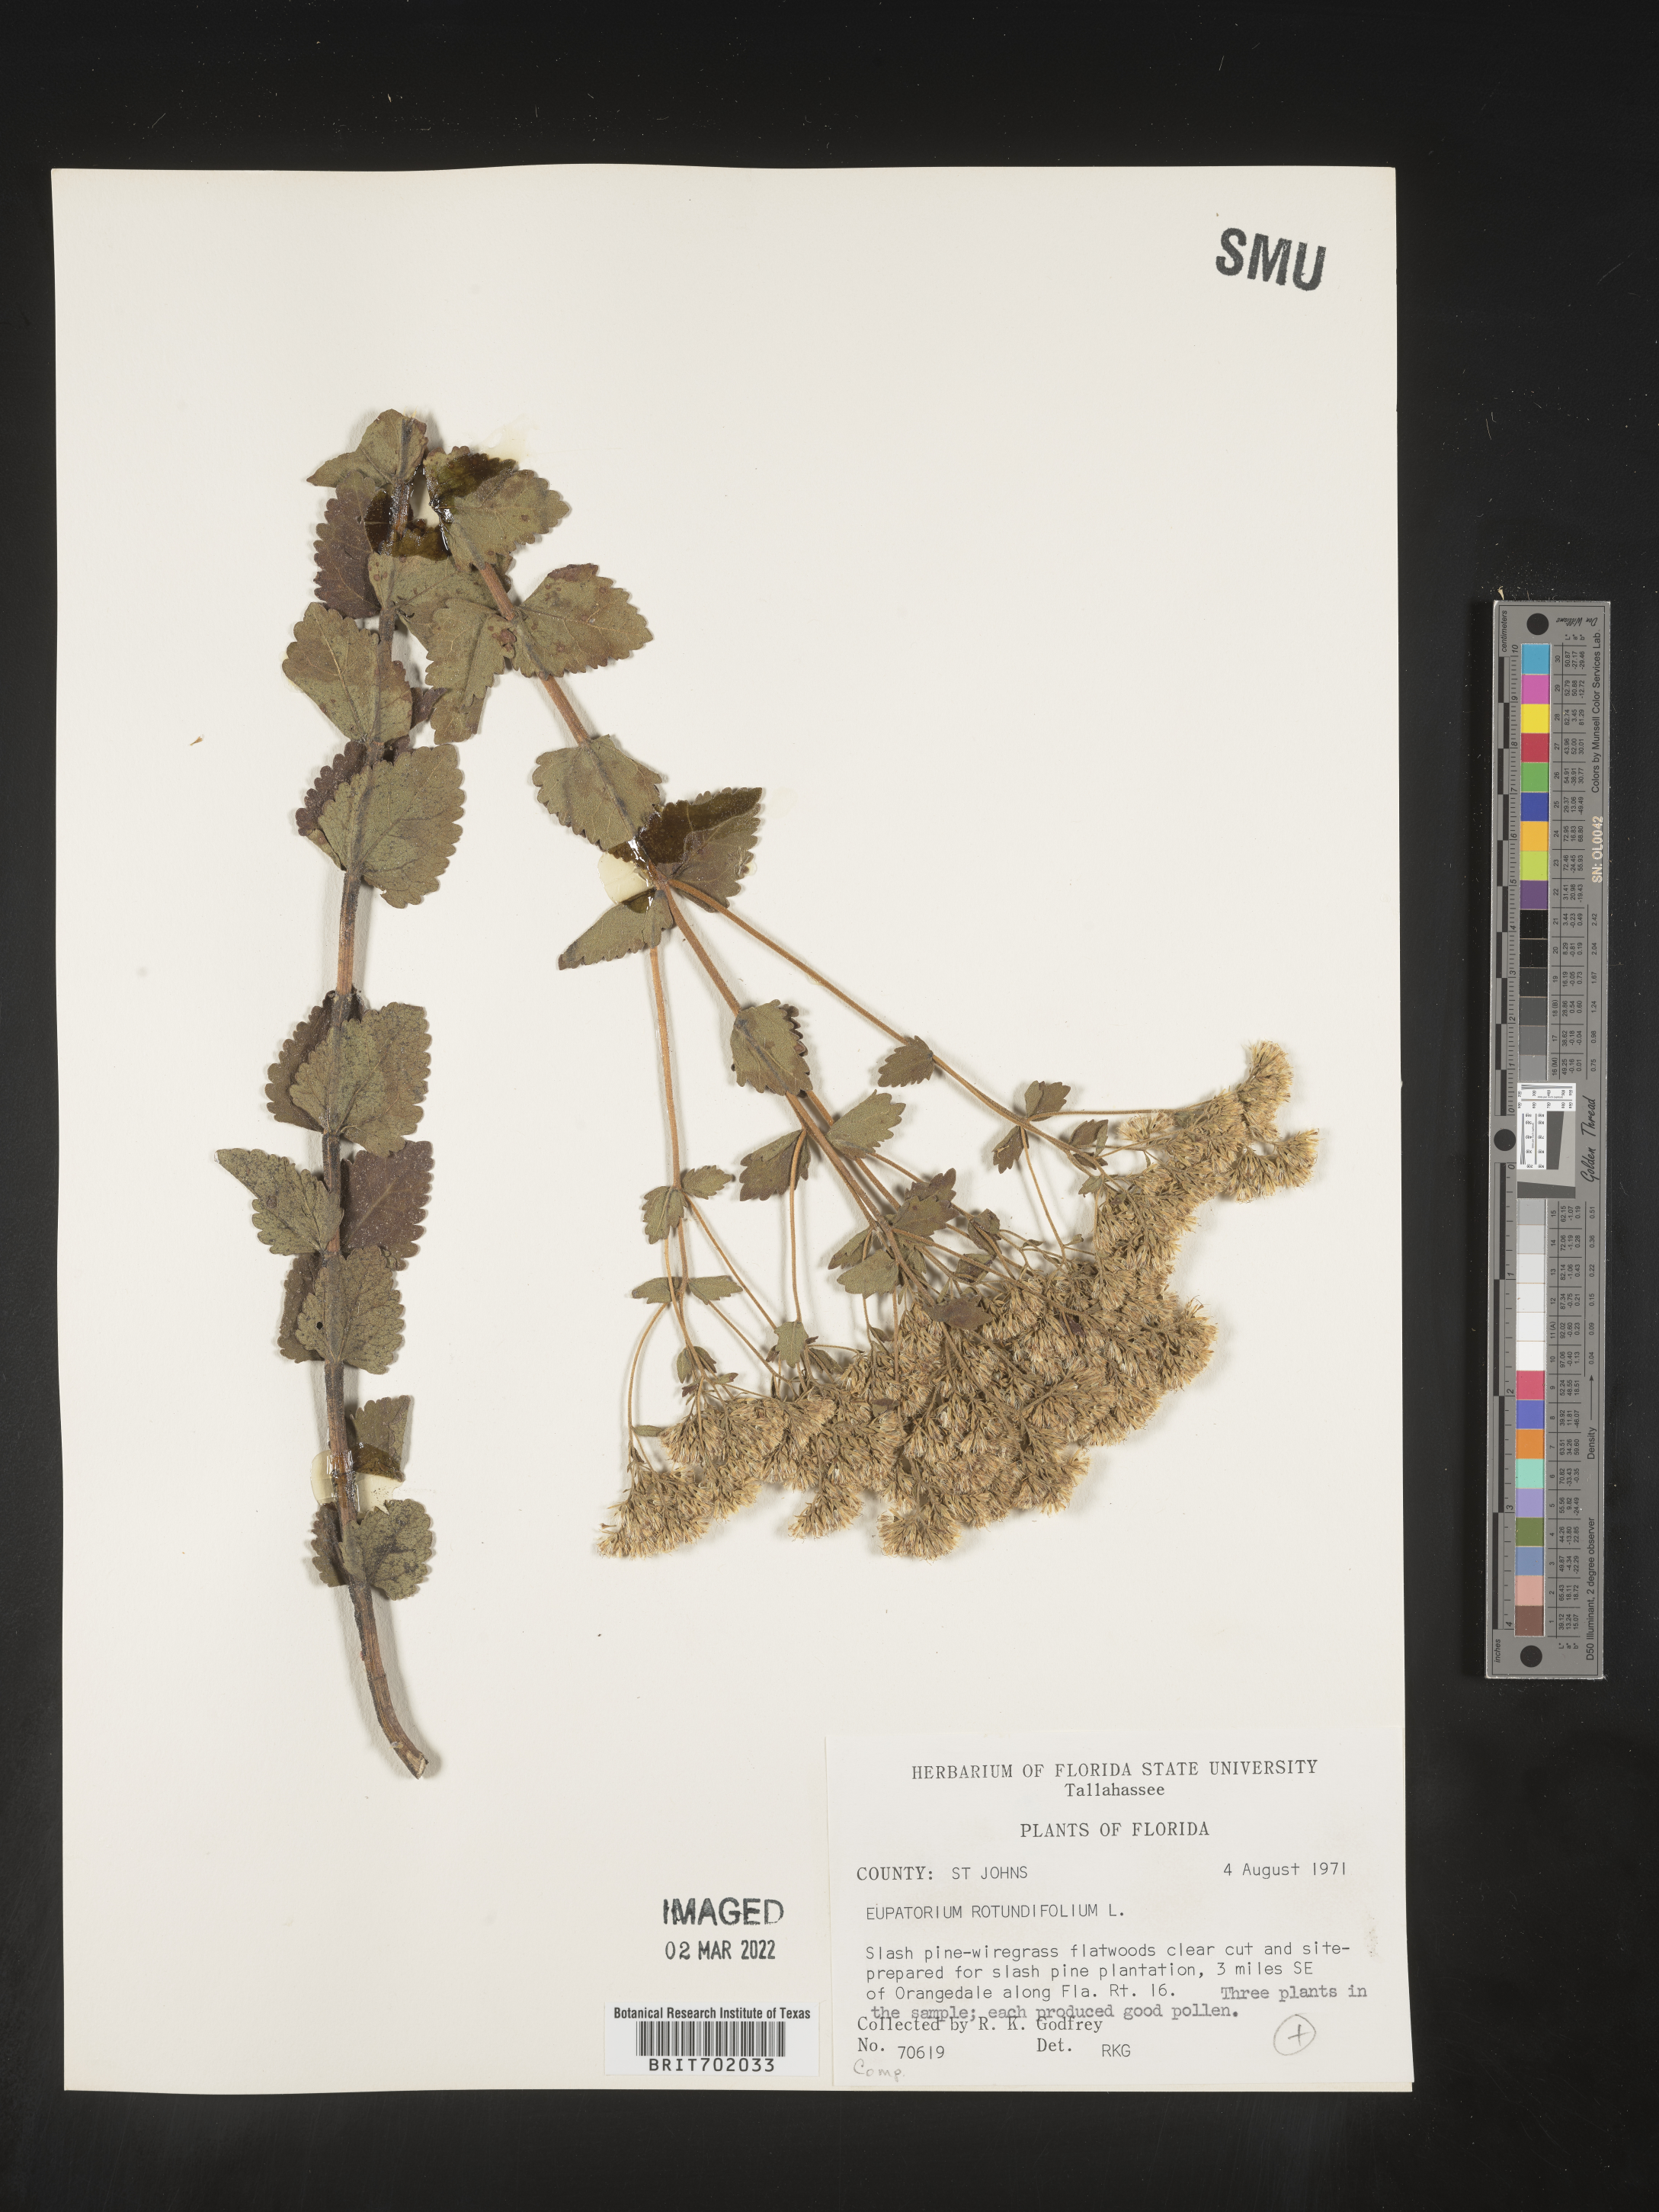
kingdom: Plantae
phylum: Tracheophyta
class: Magnoliopsida
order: Asterales
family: Asteraceae
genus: Eupatorium
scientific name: Eupatorium rotundifolium
